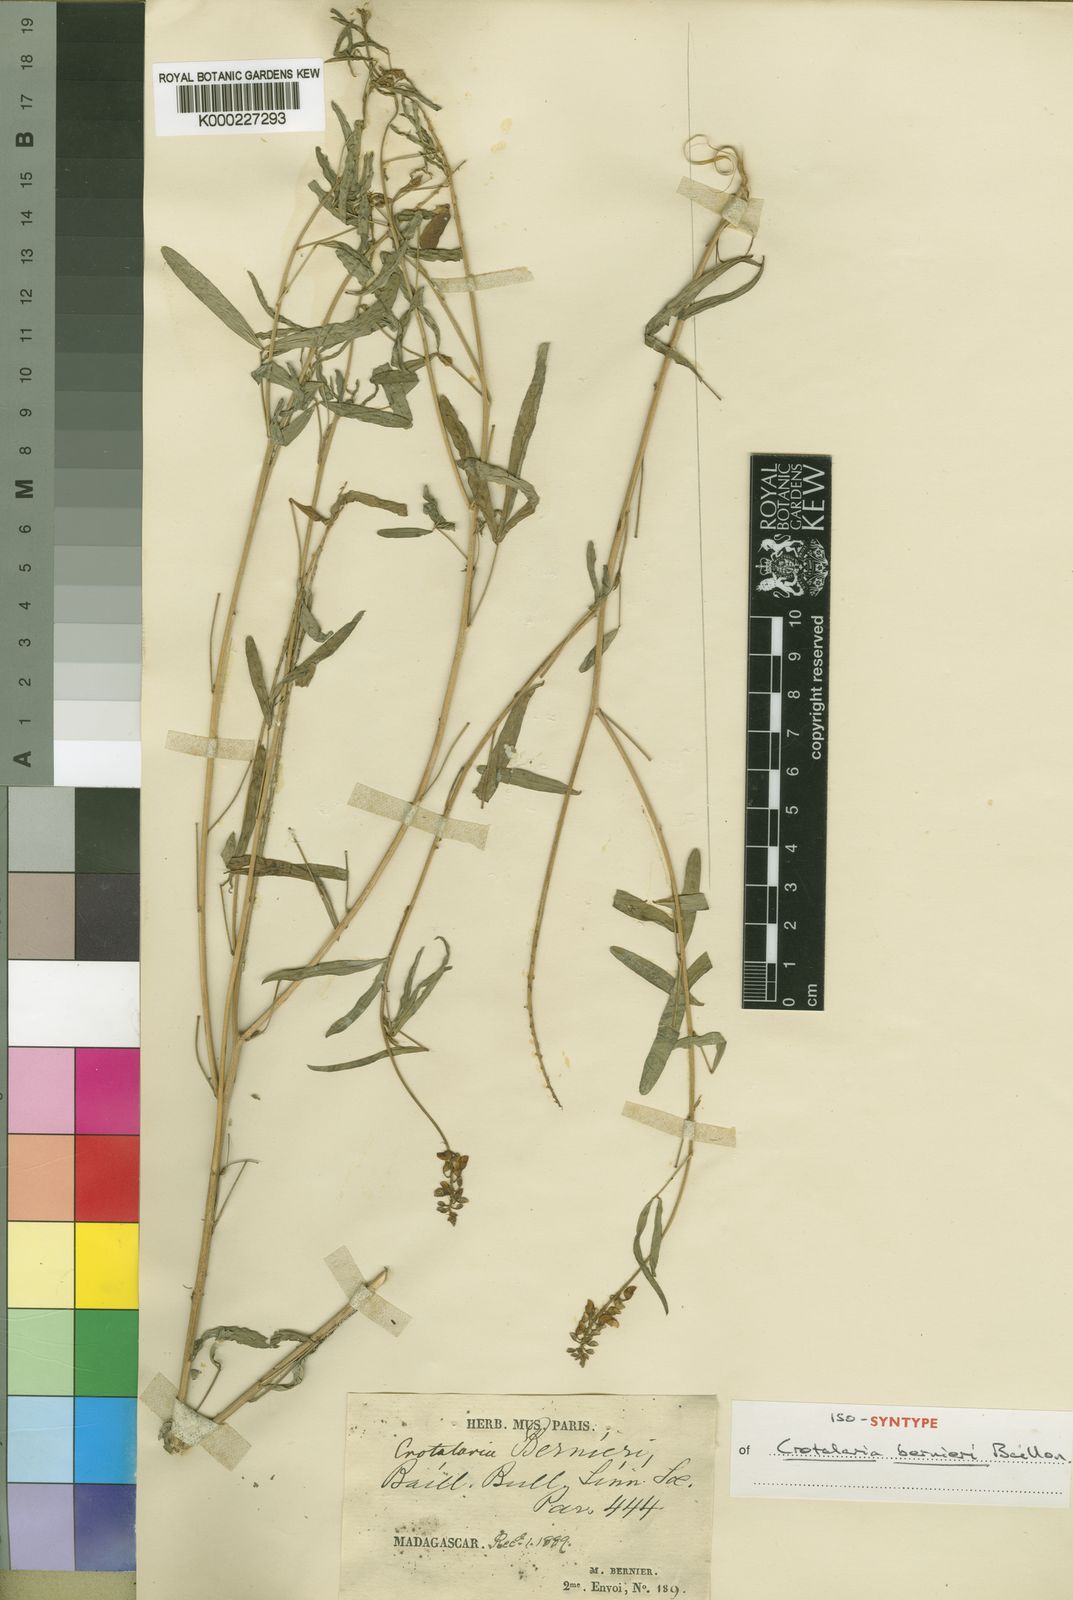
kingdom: Plantae
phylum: Tracheophyta
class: Magnoliopsida
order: Fabales
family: Fabaceae
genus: Crotalaria
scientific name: Crotalaria bernieri
